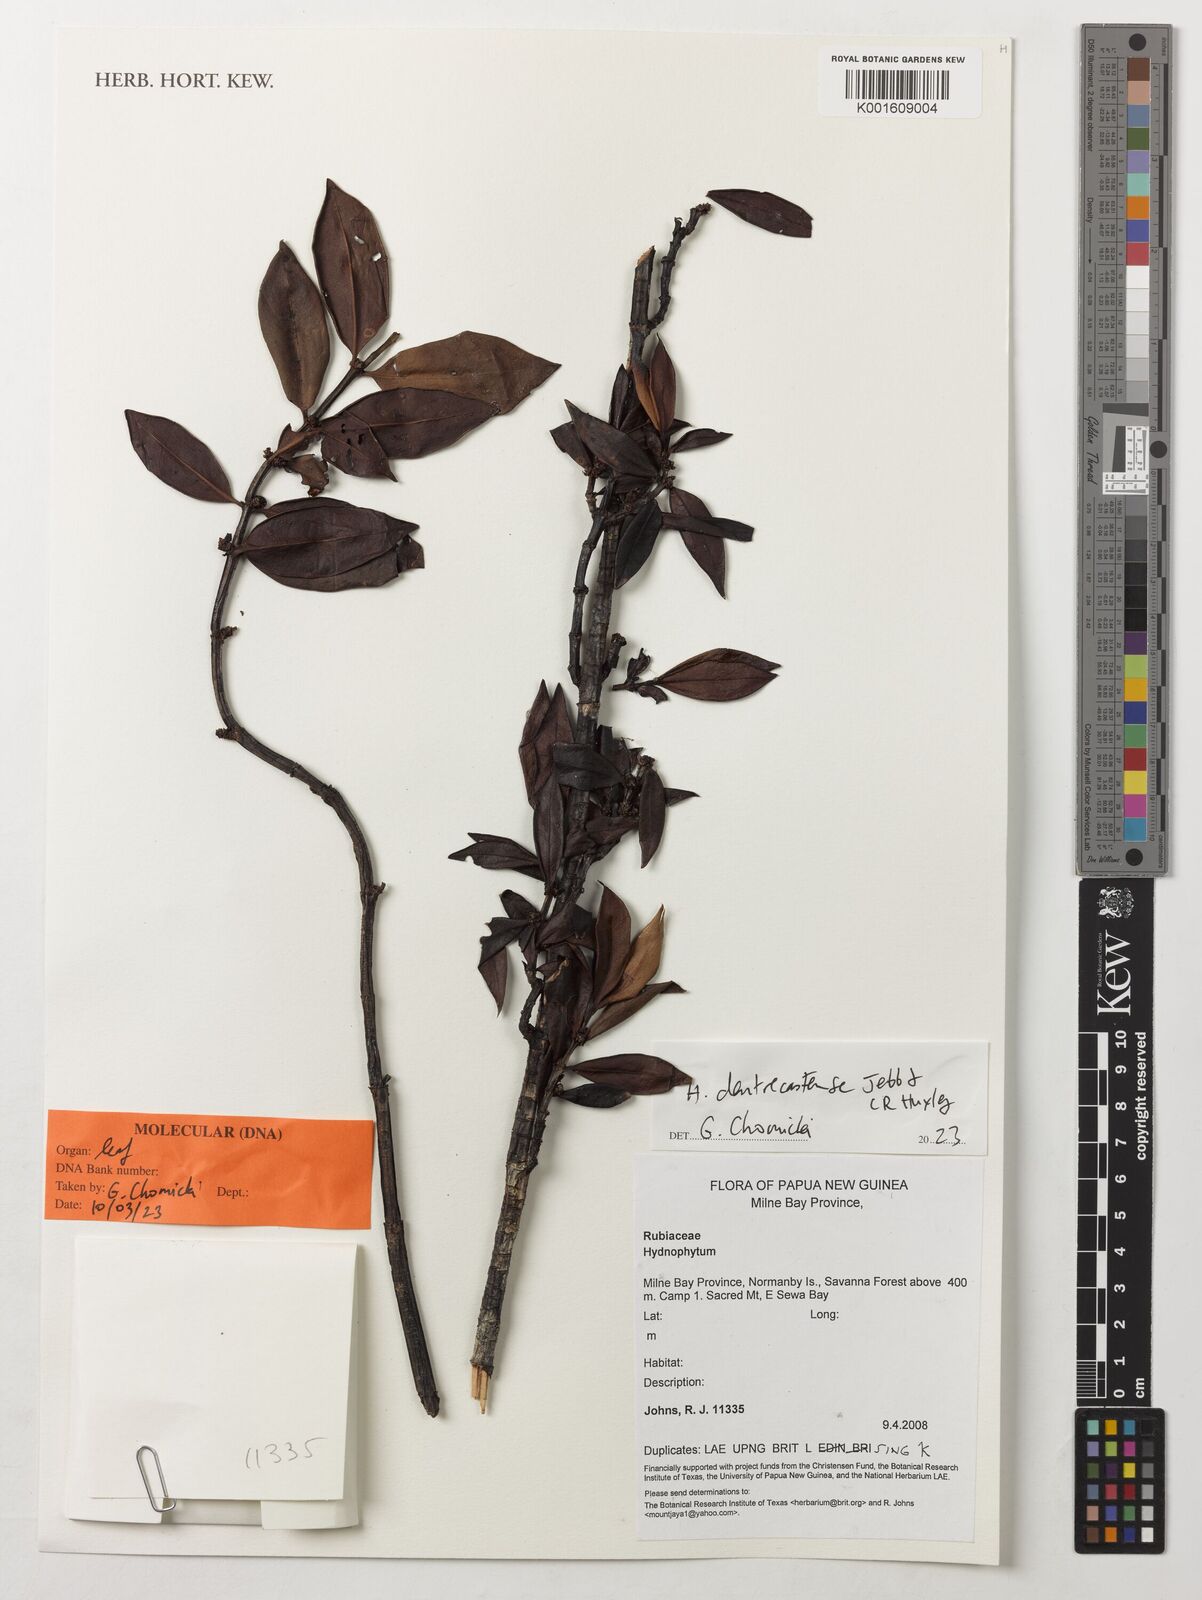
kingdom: Plantae
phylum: Tracheophyta
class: Magnoliopsida
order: Gentianales
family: Rubiaceae
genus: Hydnophytum
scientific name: Hydnophytum dentrecastense
